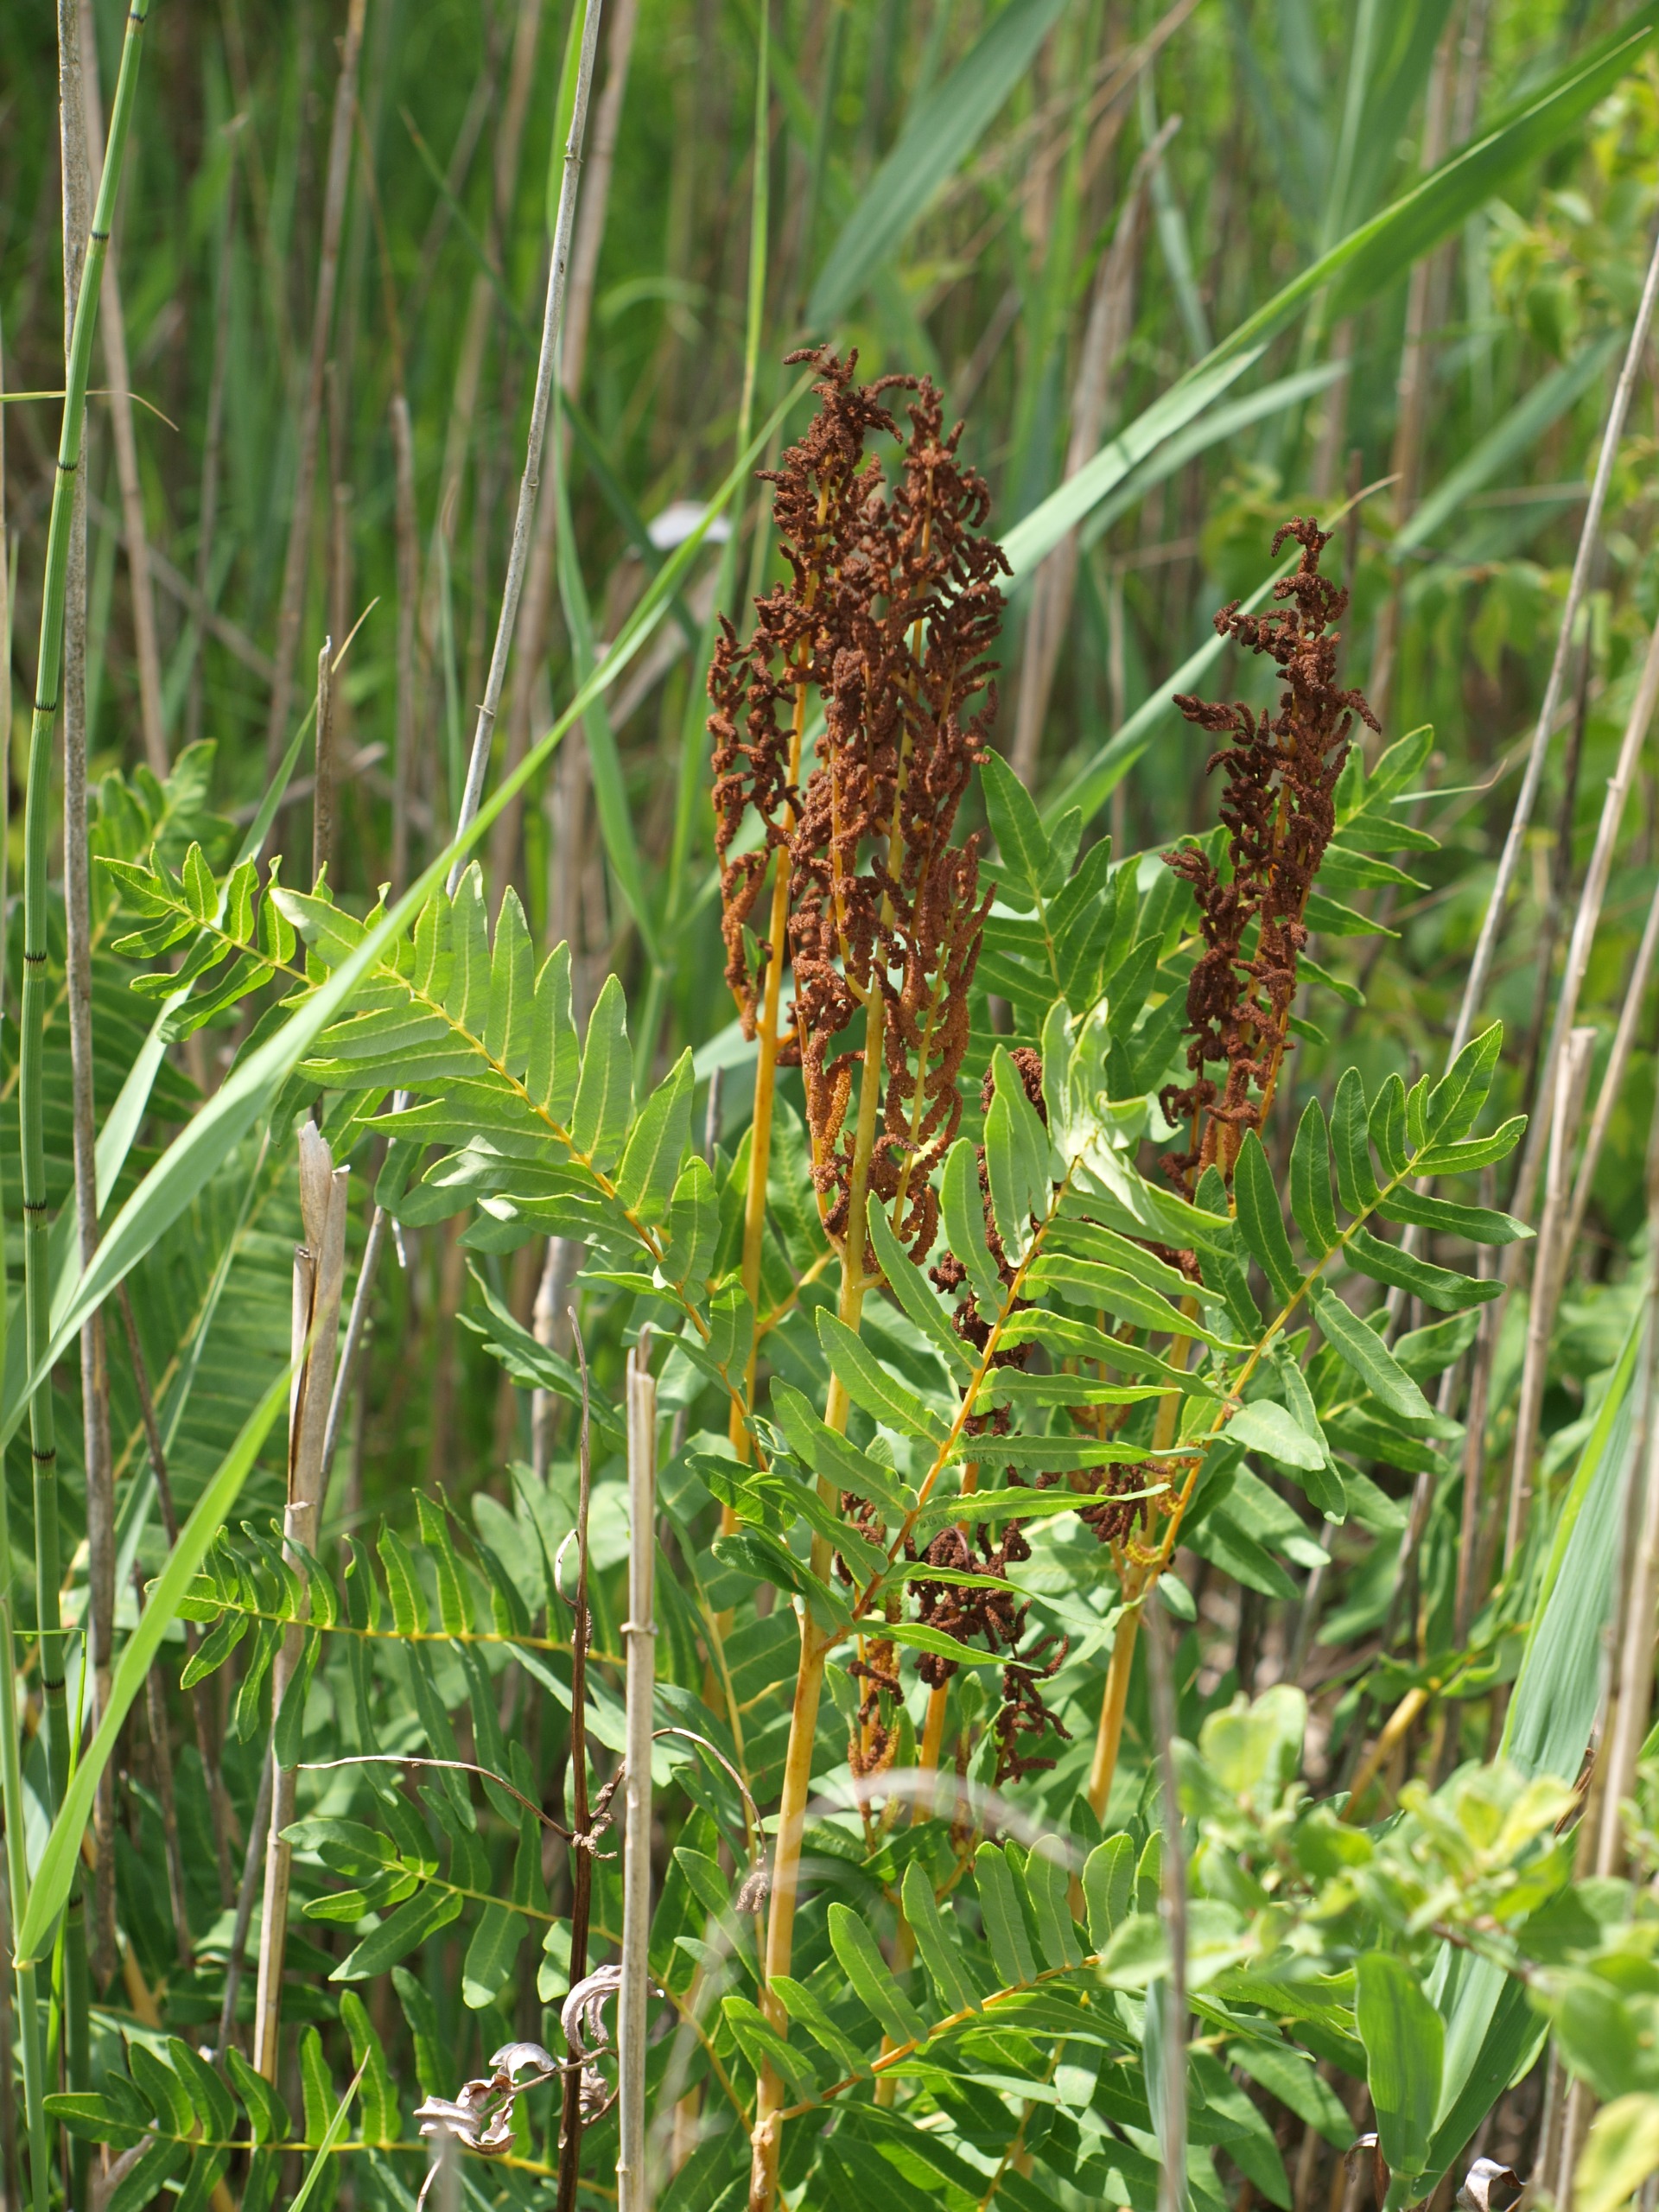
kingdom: Plantae
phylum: Tracheophyta
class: Polypodiopsida
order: Osmundales
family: Osmundaceae
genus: Osmunda
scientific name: Osmunda regalis
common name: Kongebregne
